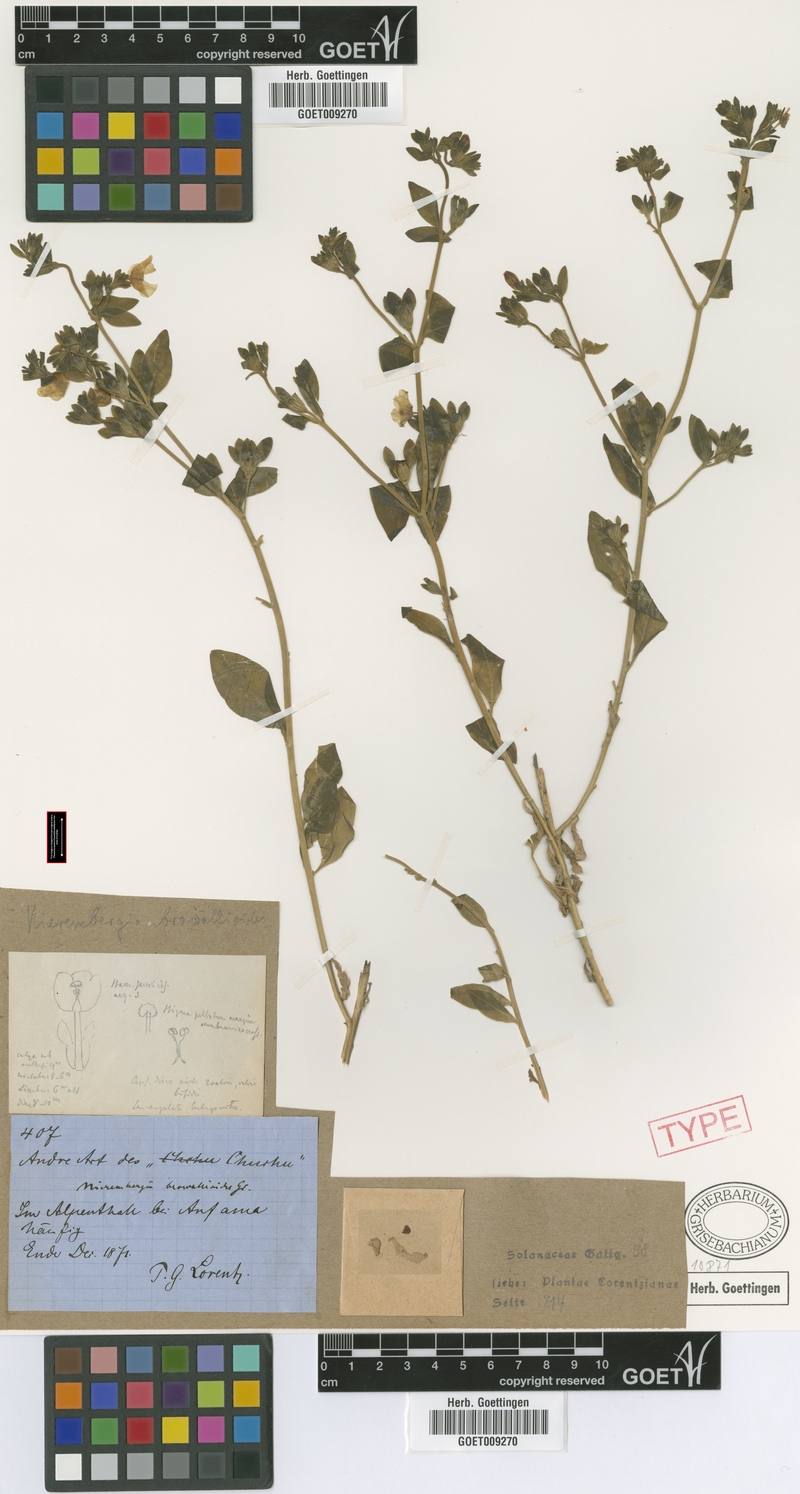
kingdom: Plantae
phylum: Tracheophyta
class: Magnoliopsida
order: Solanales
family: Solanaceae
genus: Nierembergia
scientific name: Nierembergia browallioides
